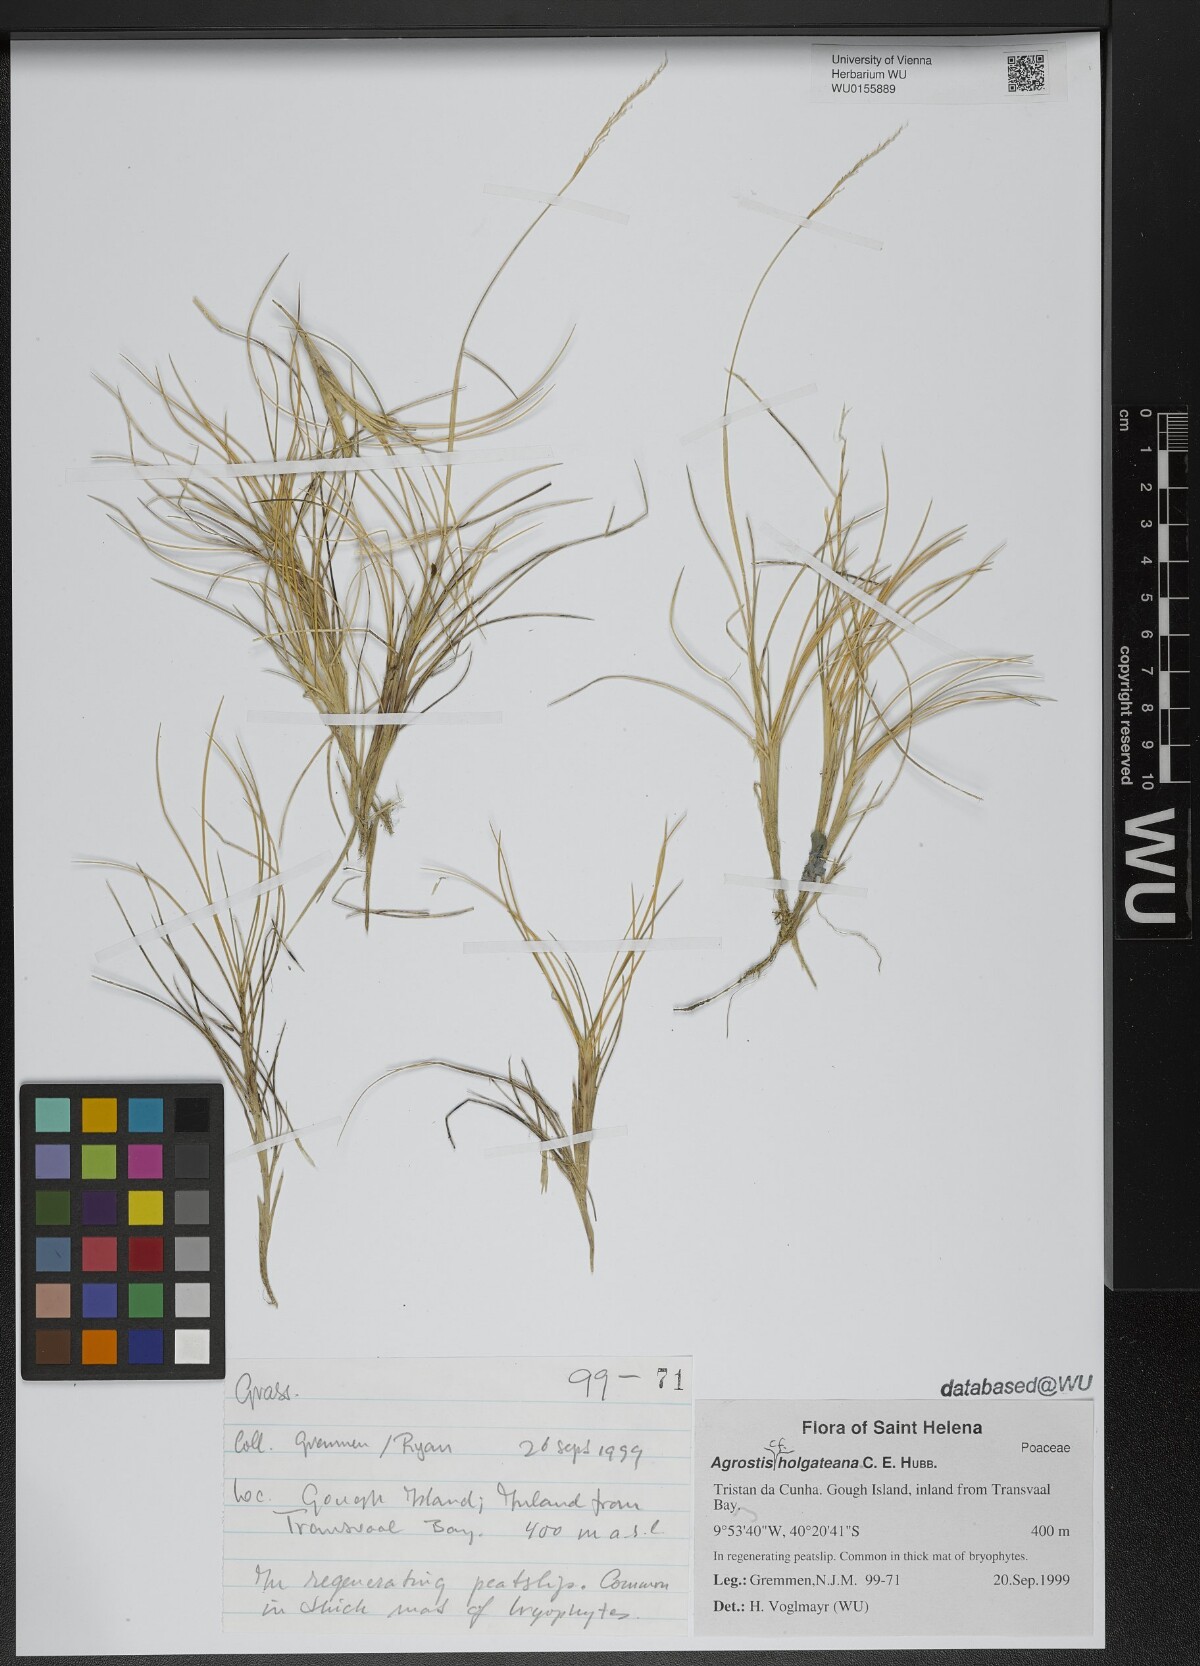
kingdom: Plantae
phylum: Tracheophyta
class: Liliopsida
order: Poales
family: Poaceae
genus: Agrostis
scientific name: Agrostis holgateana
